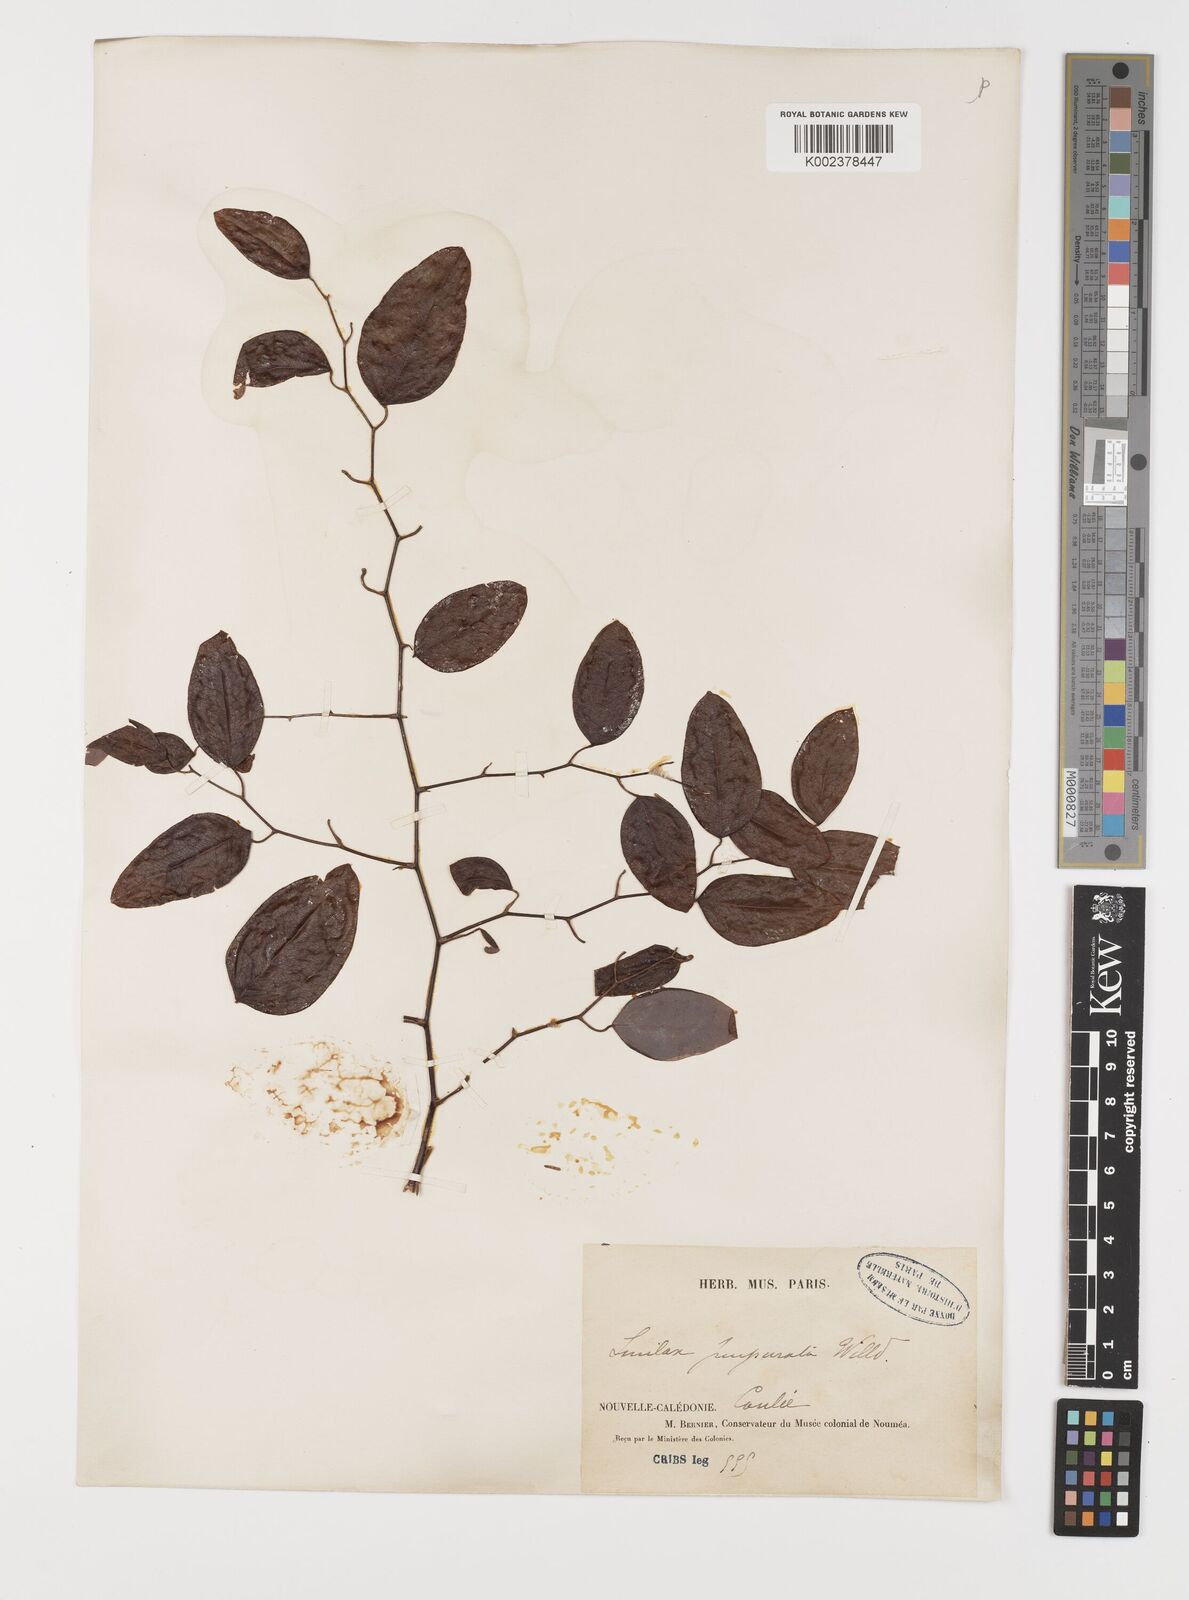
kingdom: Plantae
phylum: Tracheophyta
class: Liliopsida
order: Liliales
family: Smilacaceae
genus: Smilax
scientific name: Smilax purpurata
